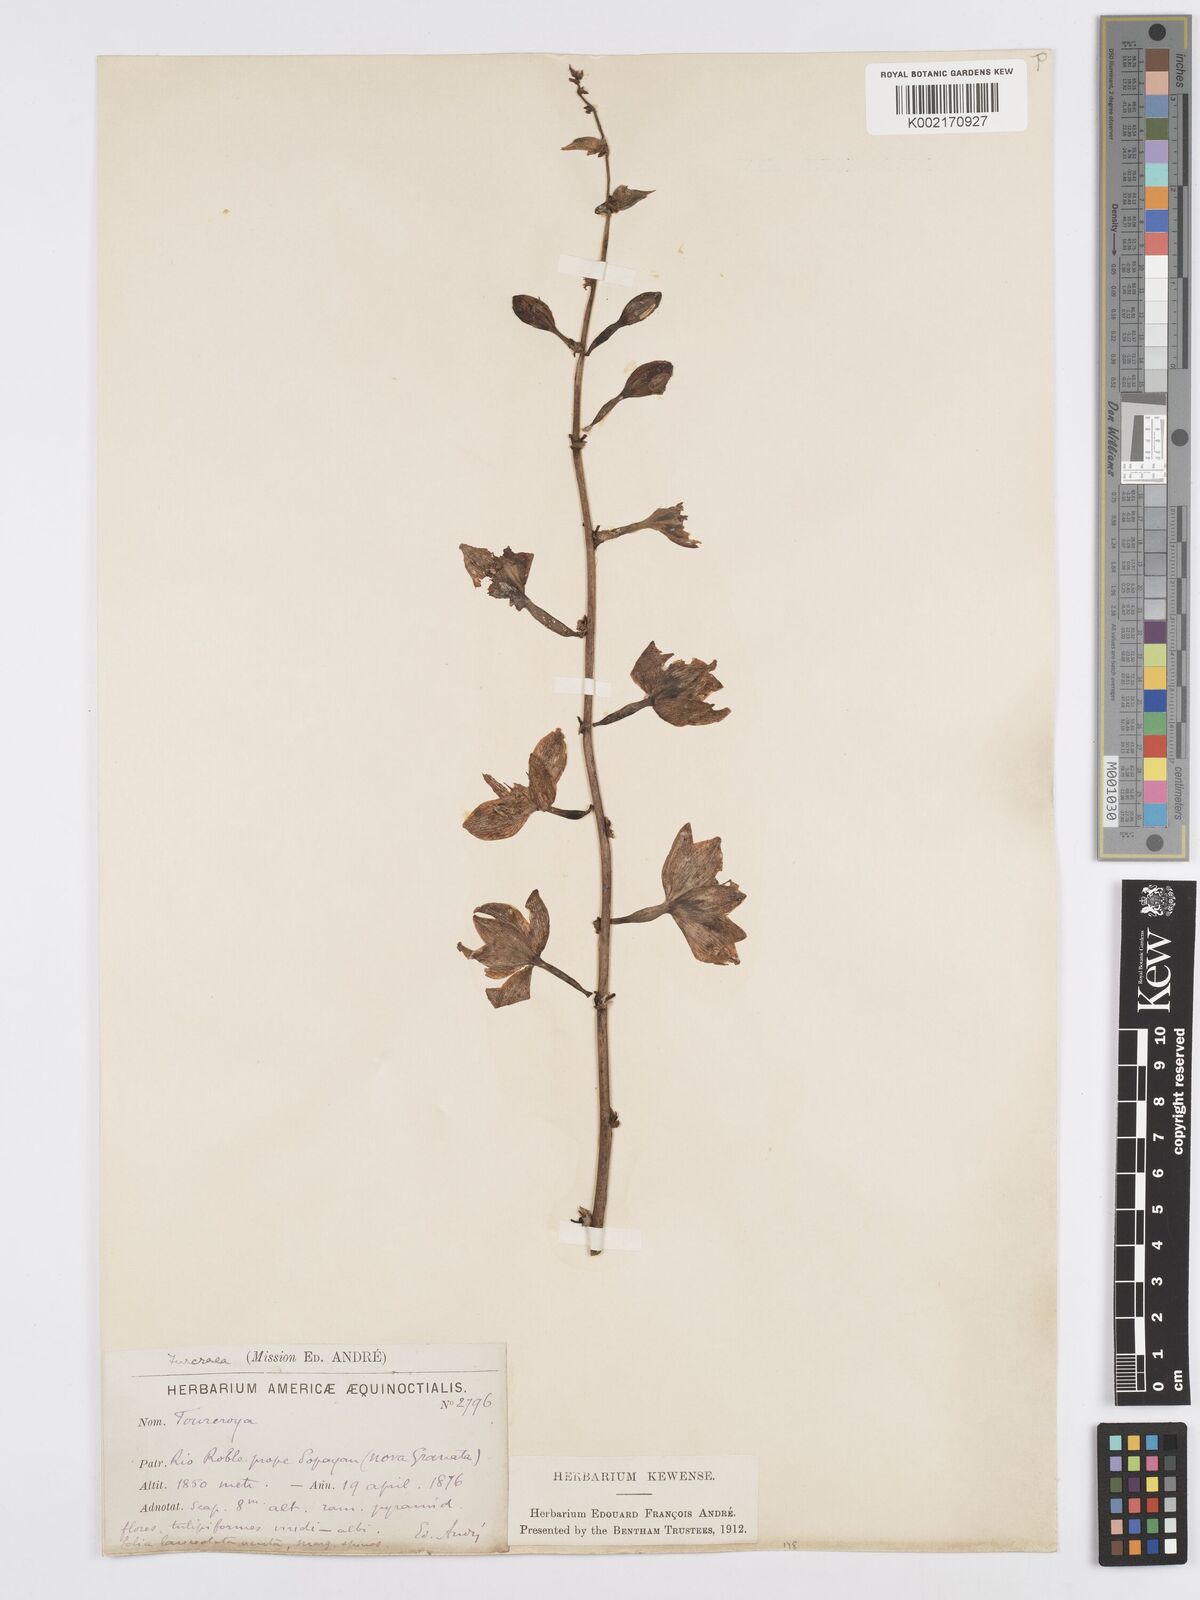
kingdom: Plantae
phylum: Tracheophyta
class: Liliopsida
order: Asparagales
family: Asparagaceae
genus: Furcraea
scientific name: Furcraea
